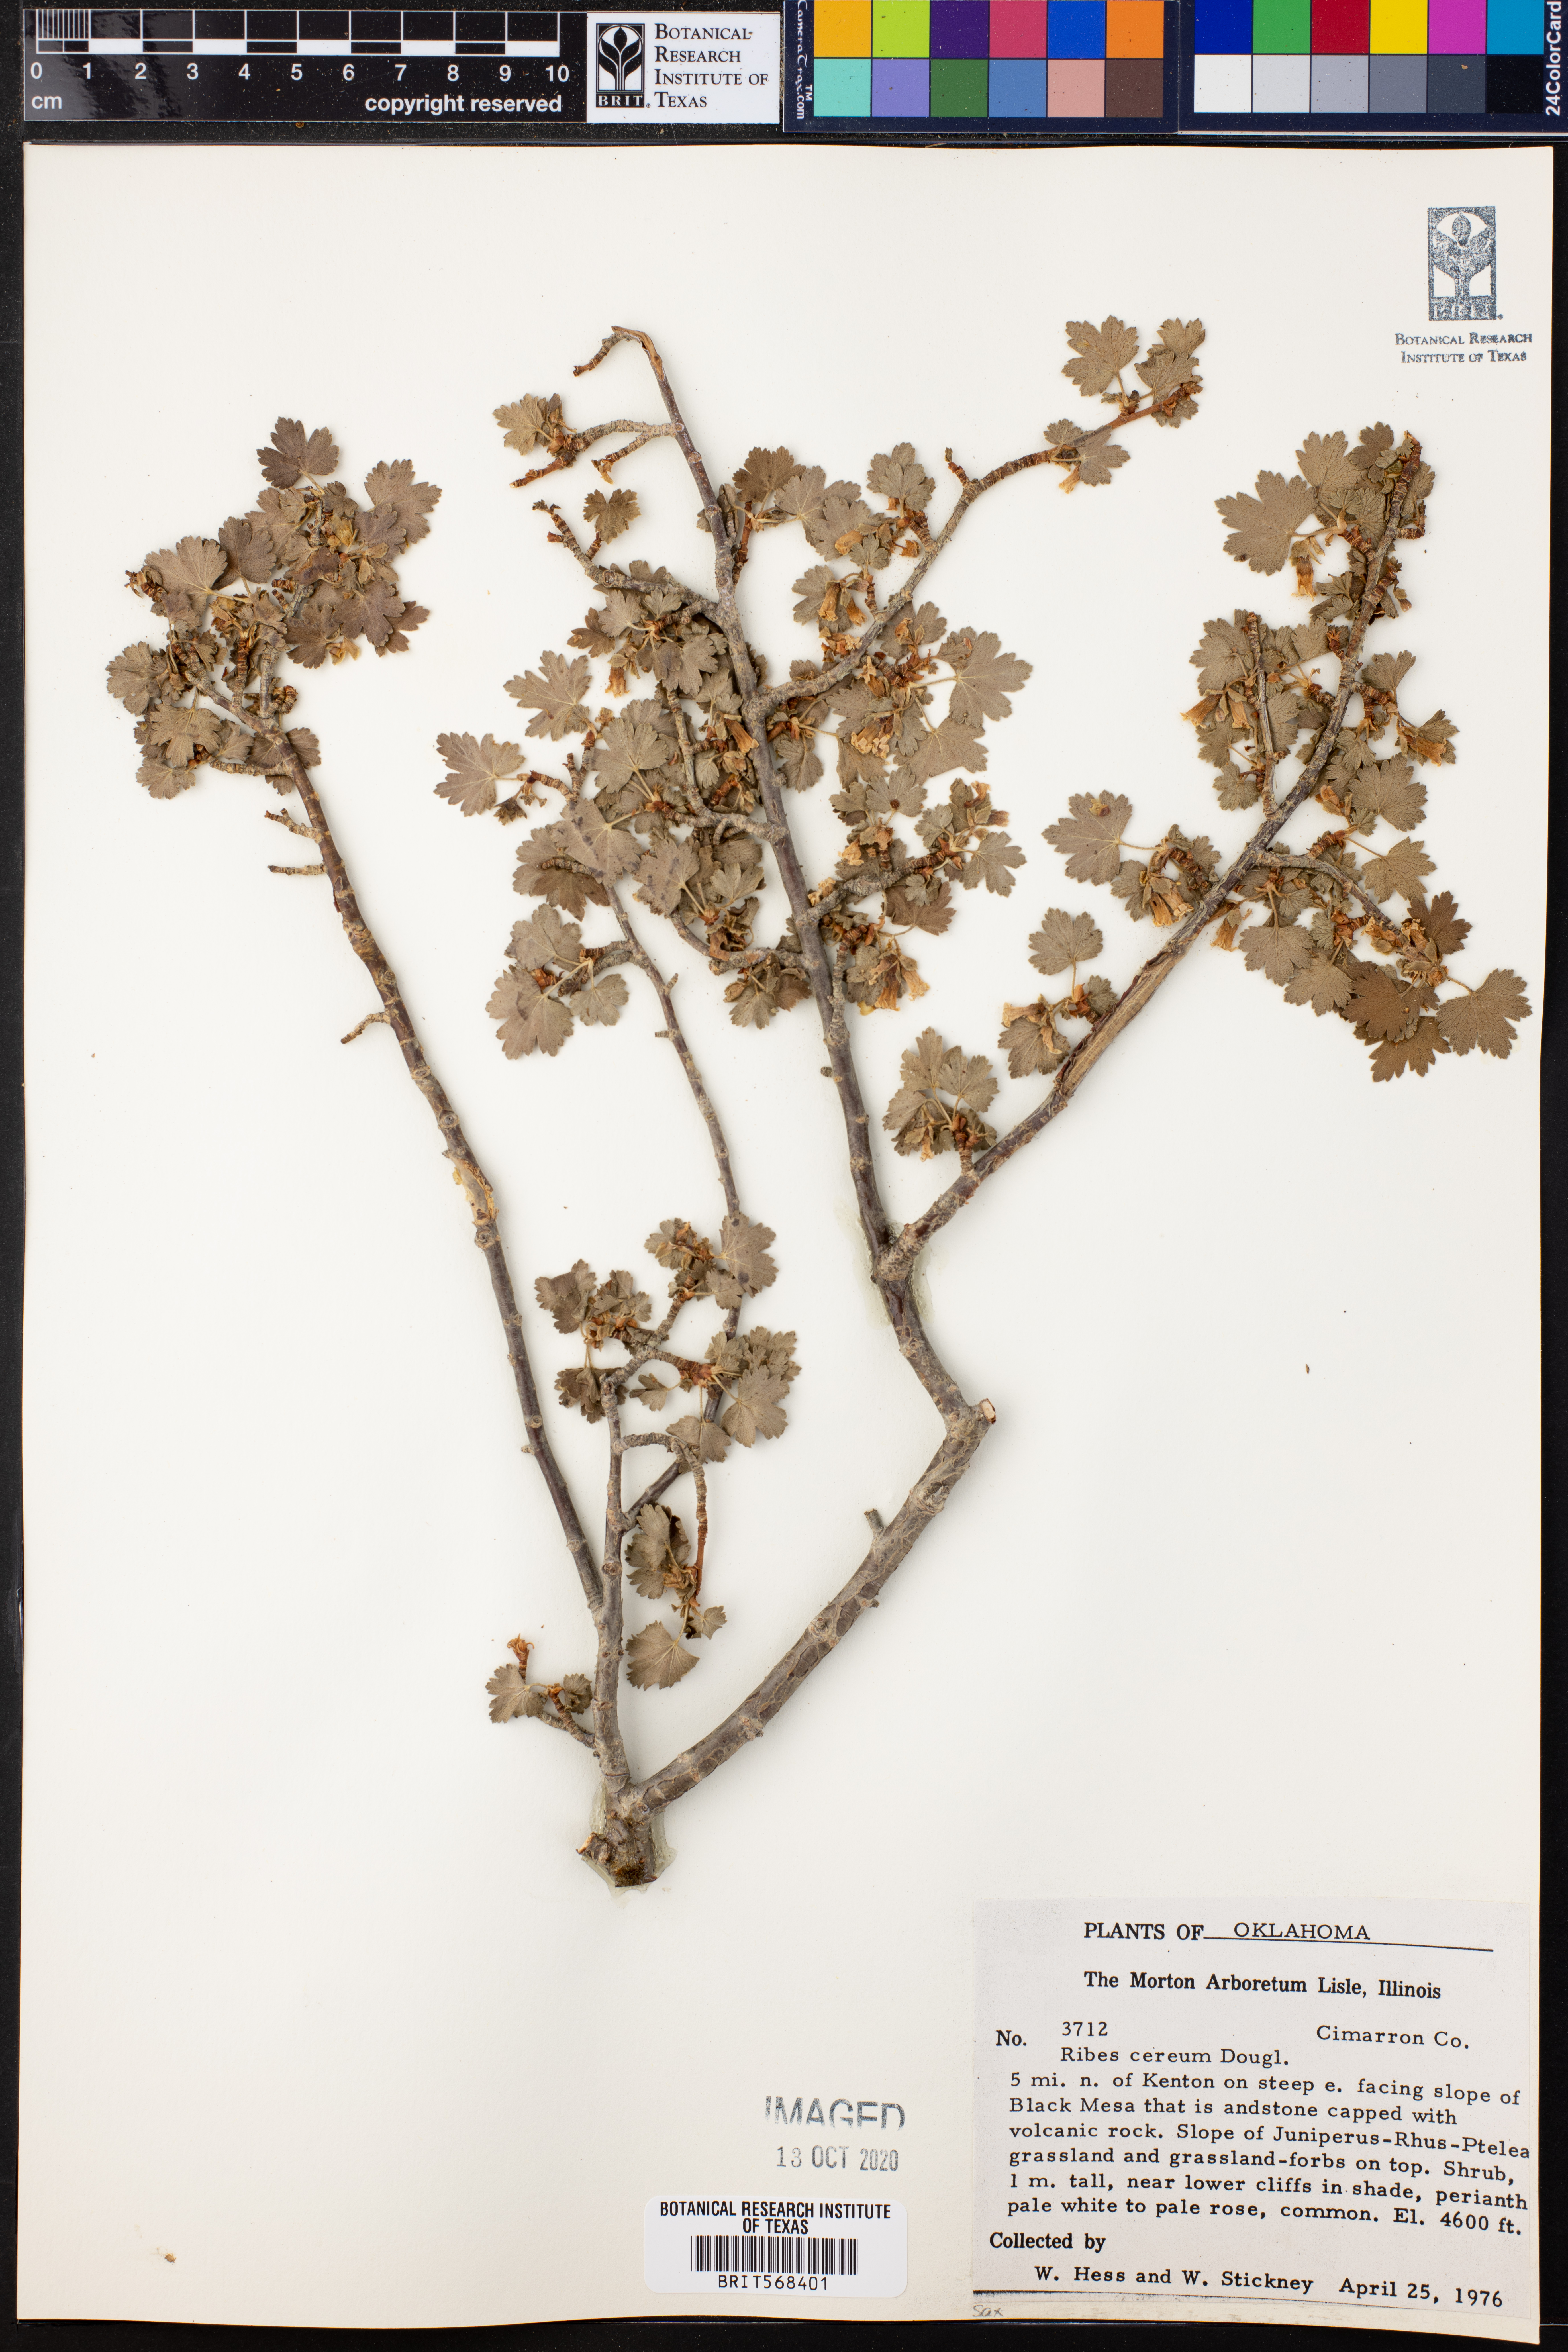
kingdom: Plantae
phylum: Tracheophyta
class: Magnoliopsida
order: Saxifragales
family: Grossulariaceae
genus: Ribes
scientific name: Ribes cereum
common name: Wax currant
